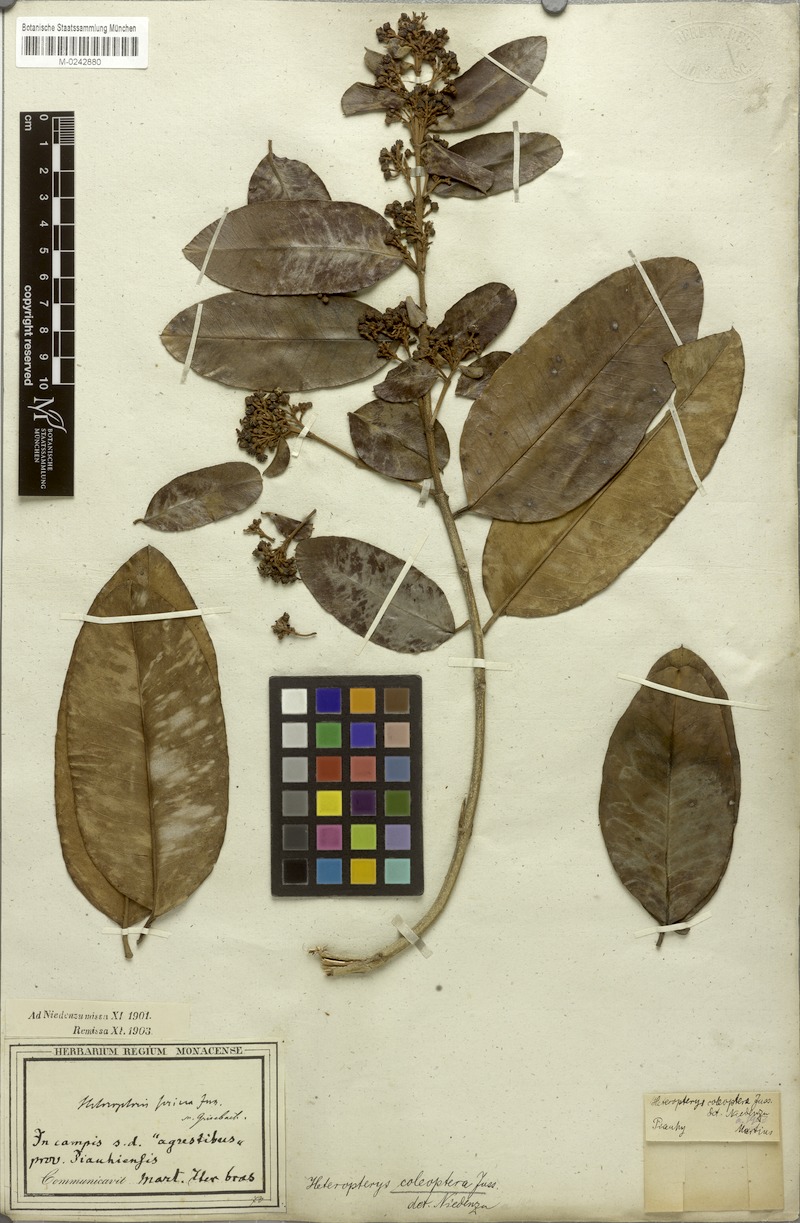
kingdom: Plantae
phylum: Tracheophyta
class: Magnoliopsida
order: Malpighiales
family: Malpighiaceae
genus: Heteropterys
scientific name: Heteropterys coleoptera
